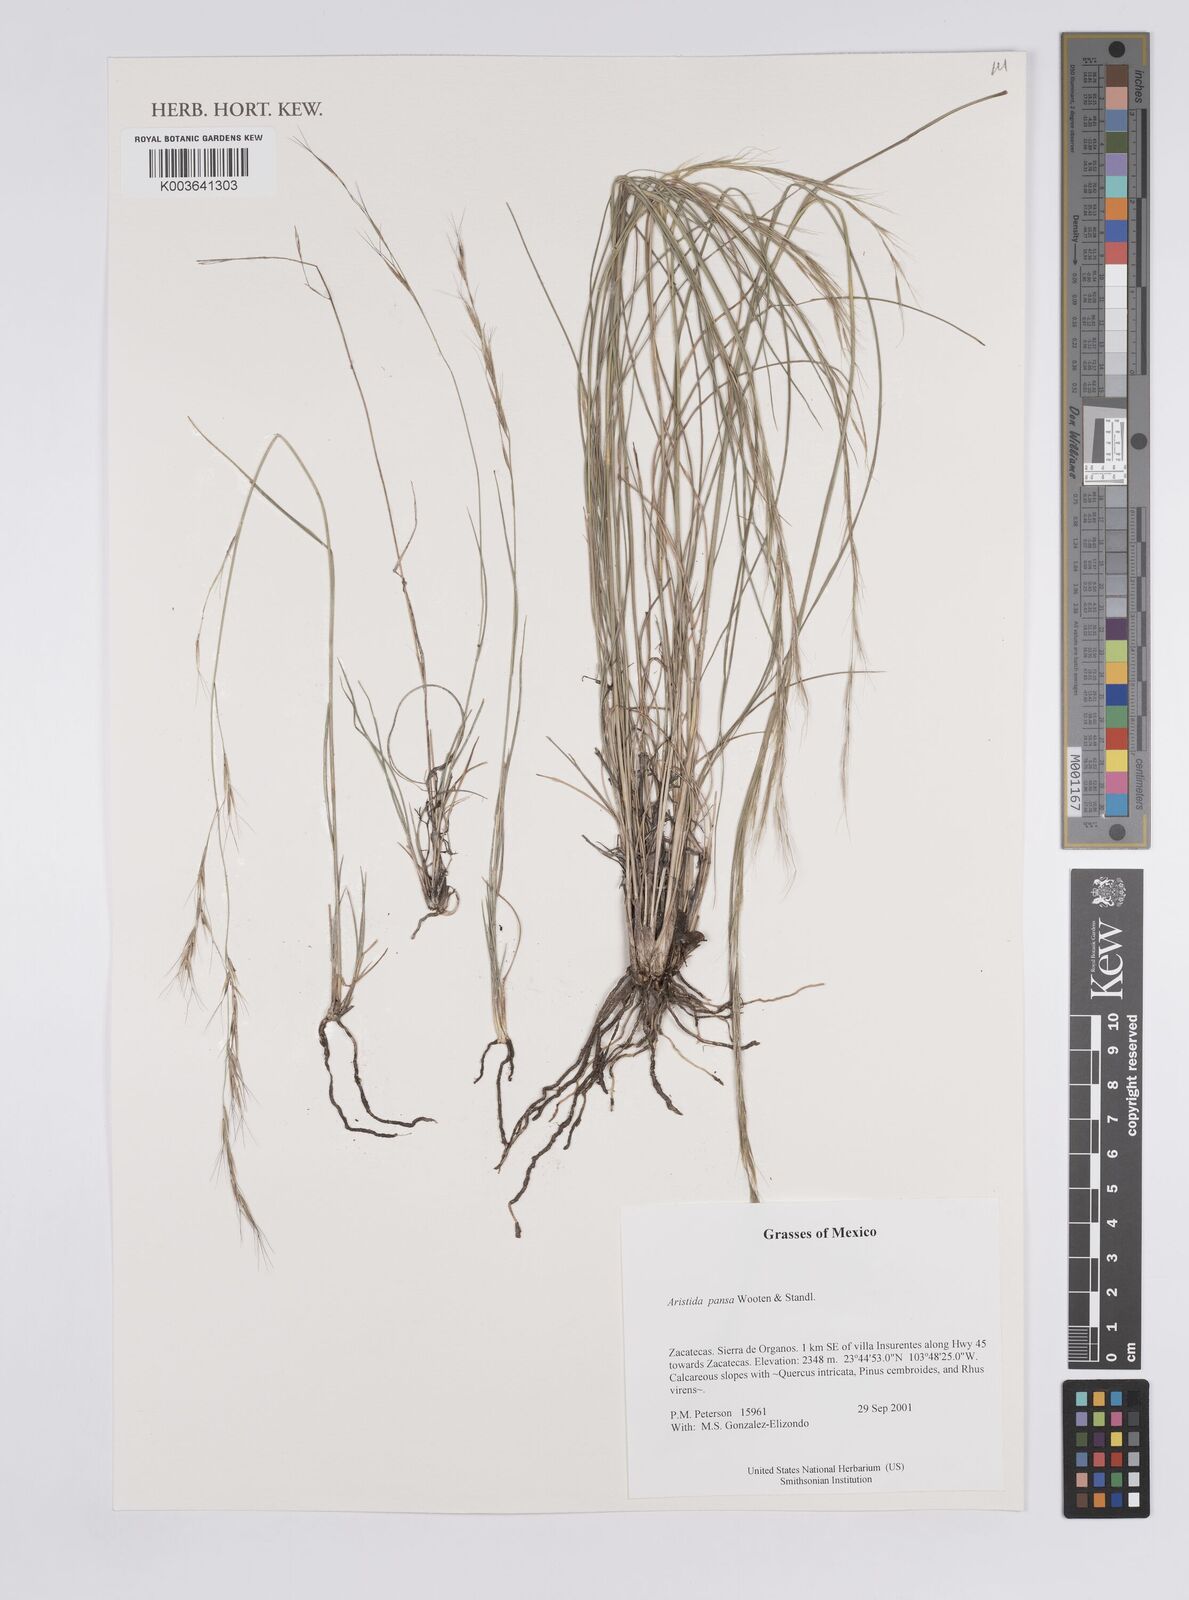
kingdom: Plantae
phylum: Tracheophyta
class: Liliopsida
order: Poales
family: Poaceae
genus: Aristida
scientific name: Aristida pansa
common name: Wooton's three-awn
